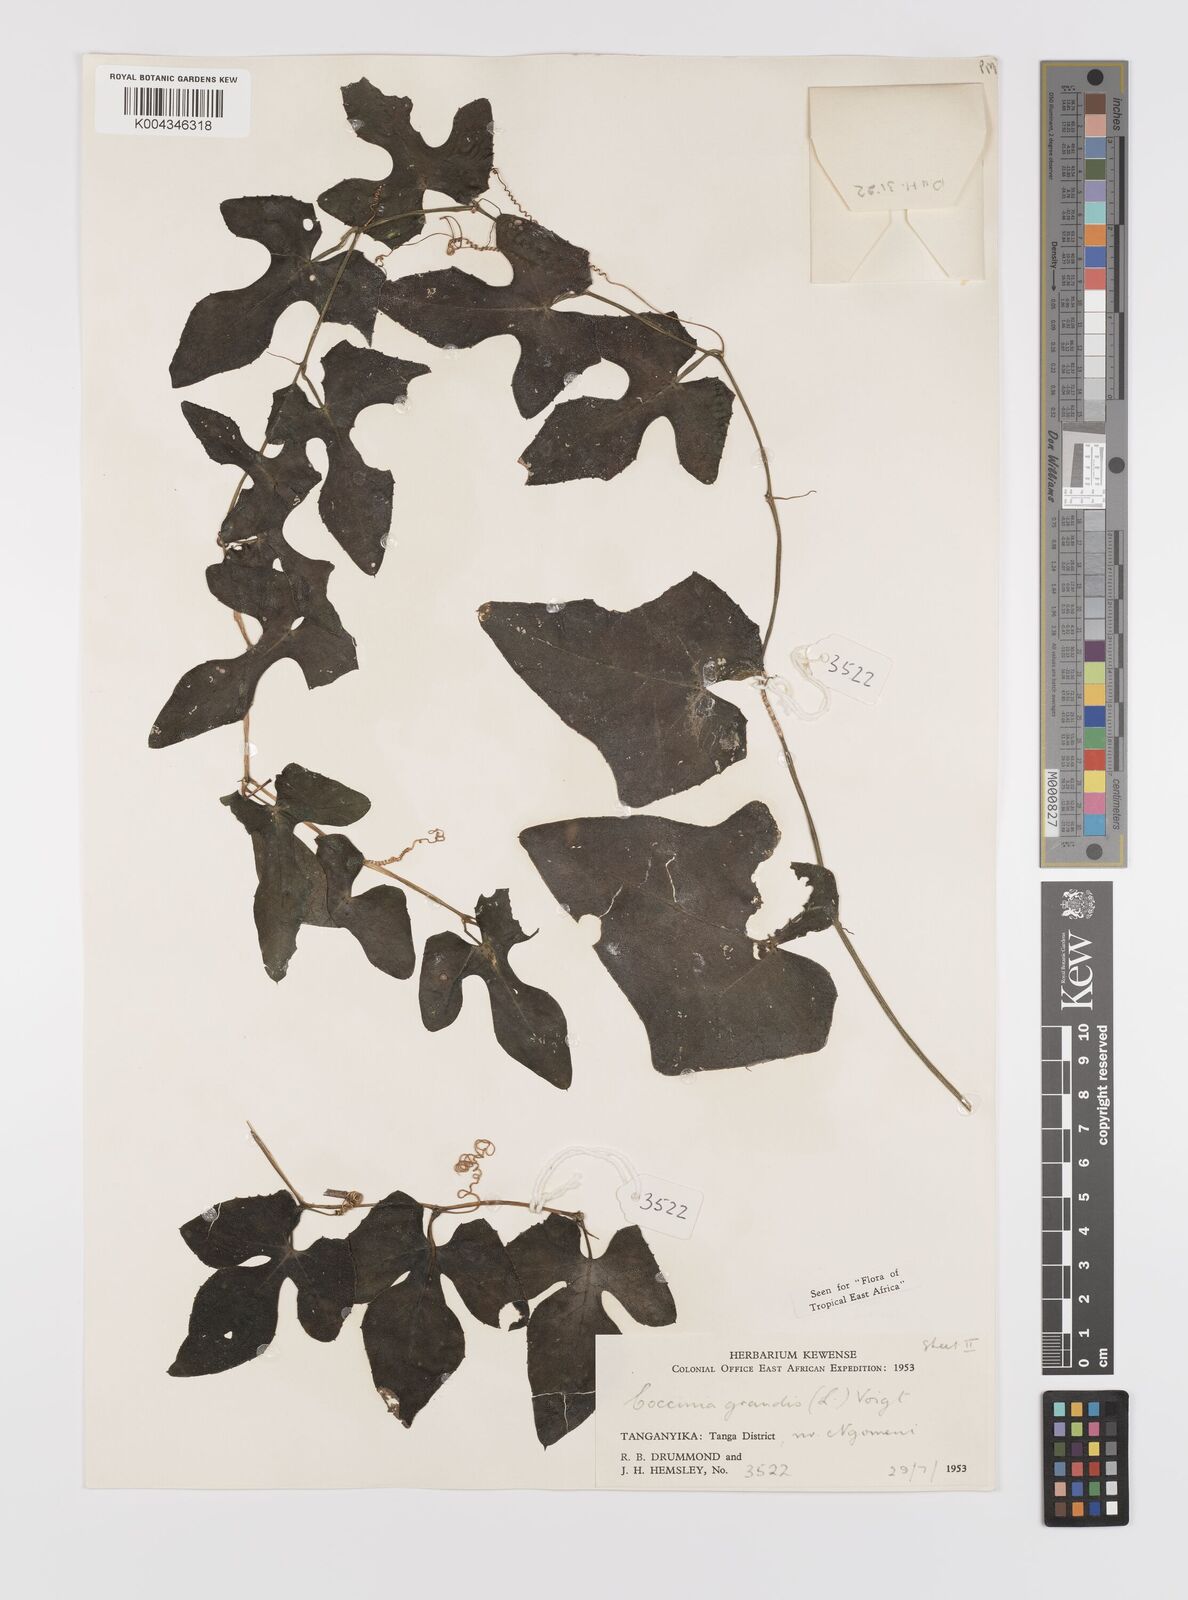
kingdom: Plantae
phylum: Tracheophyta
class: Magnoliopsida
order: Cucurbitales
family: Cucurbitaceae
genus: Coccinia
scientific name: Coccinia grandis
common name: Ivy gourd
